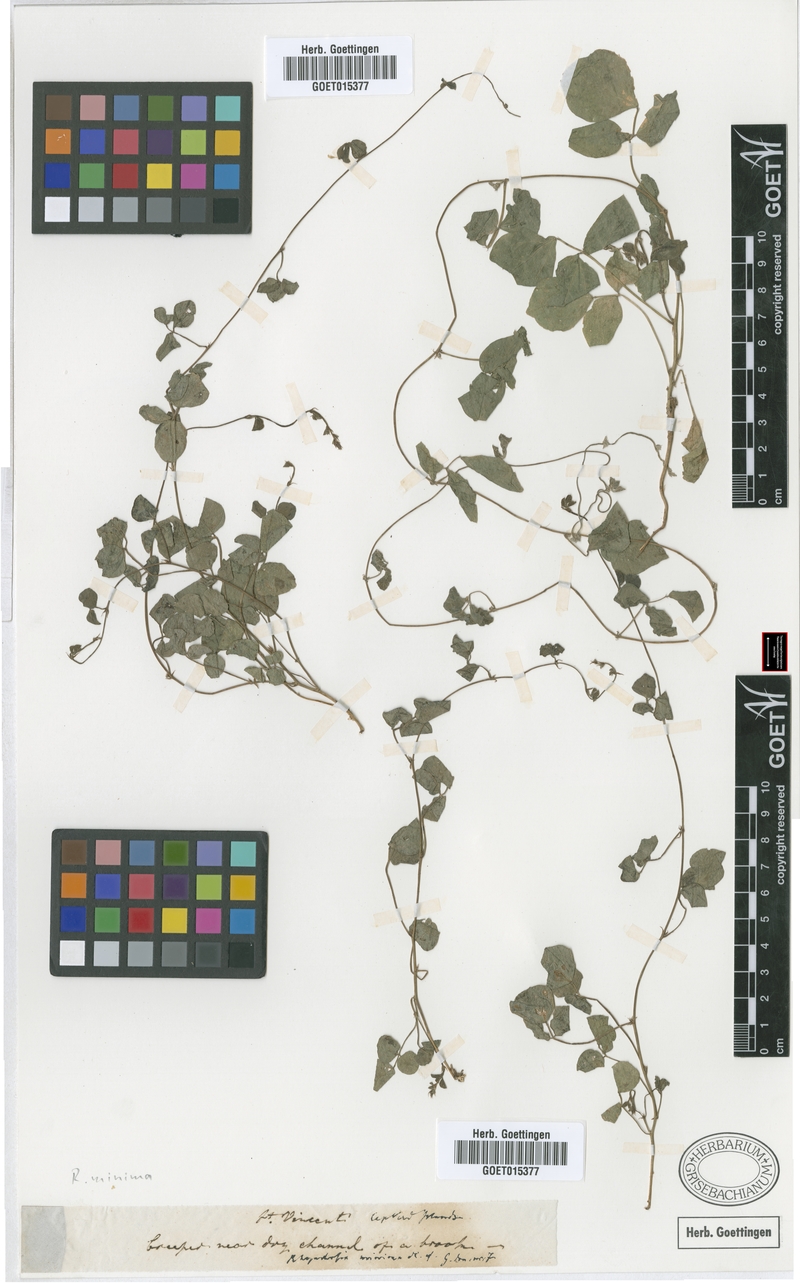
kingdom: Plantae
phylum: Tracheophyta
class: Magnoliopsida
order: Fabales
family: Fabaceae
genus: Rhynchosia
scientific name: Rhynchosia minima
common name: Least snoutbean
